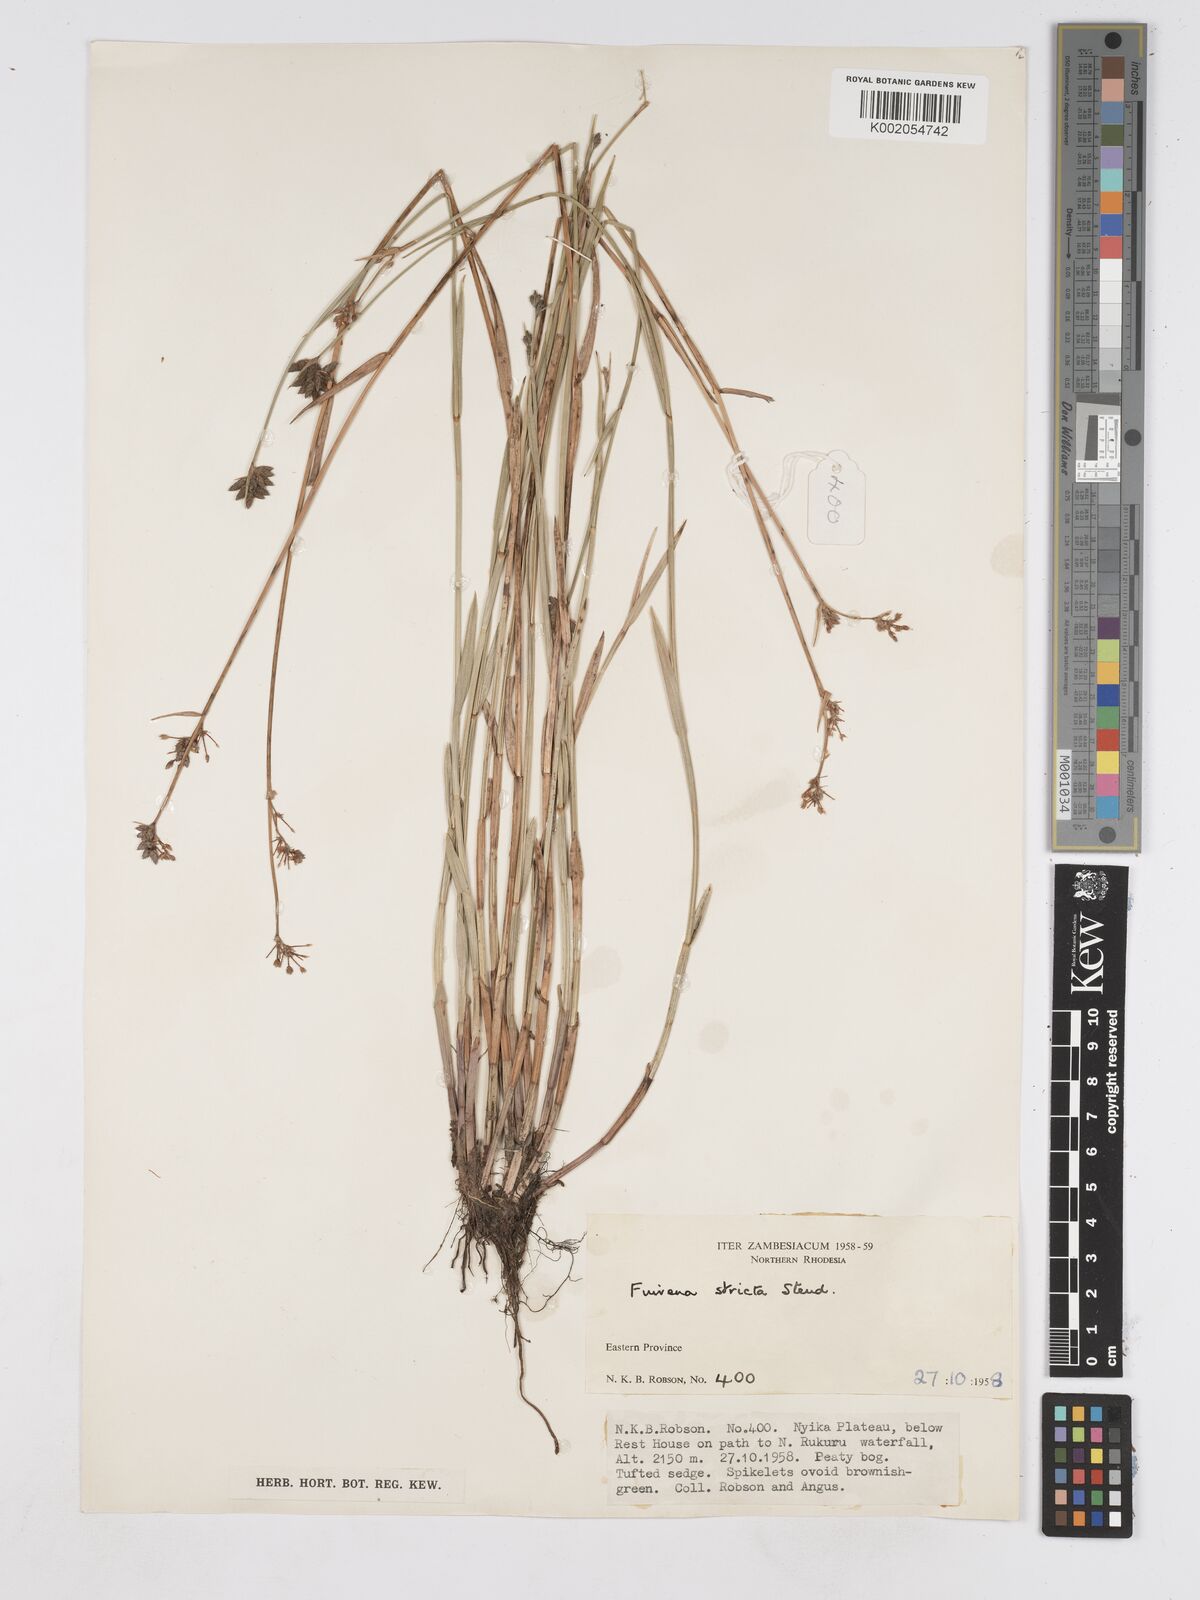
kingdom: Plantae
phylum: Tracheophyta
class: Liliopsida
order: Poales
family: Cyperaceae
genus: Fuirena
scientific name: Fuirena stricta
